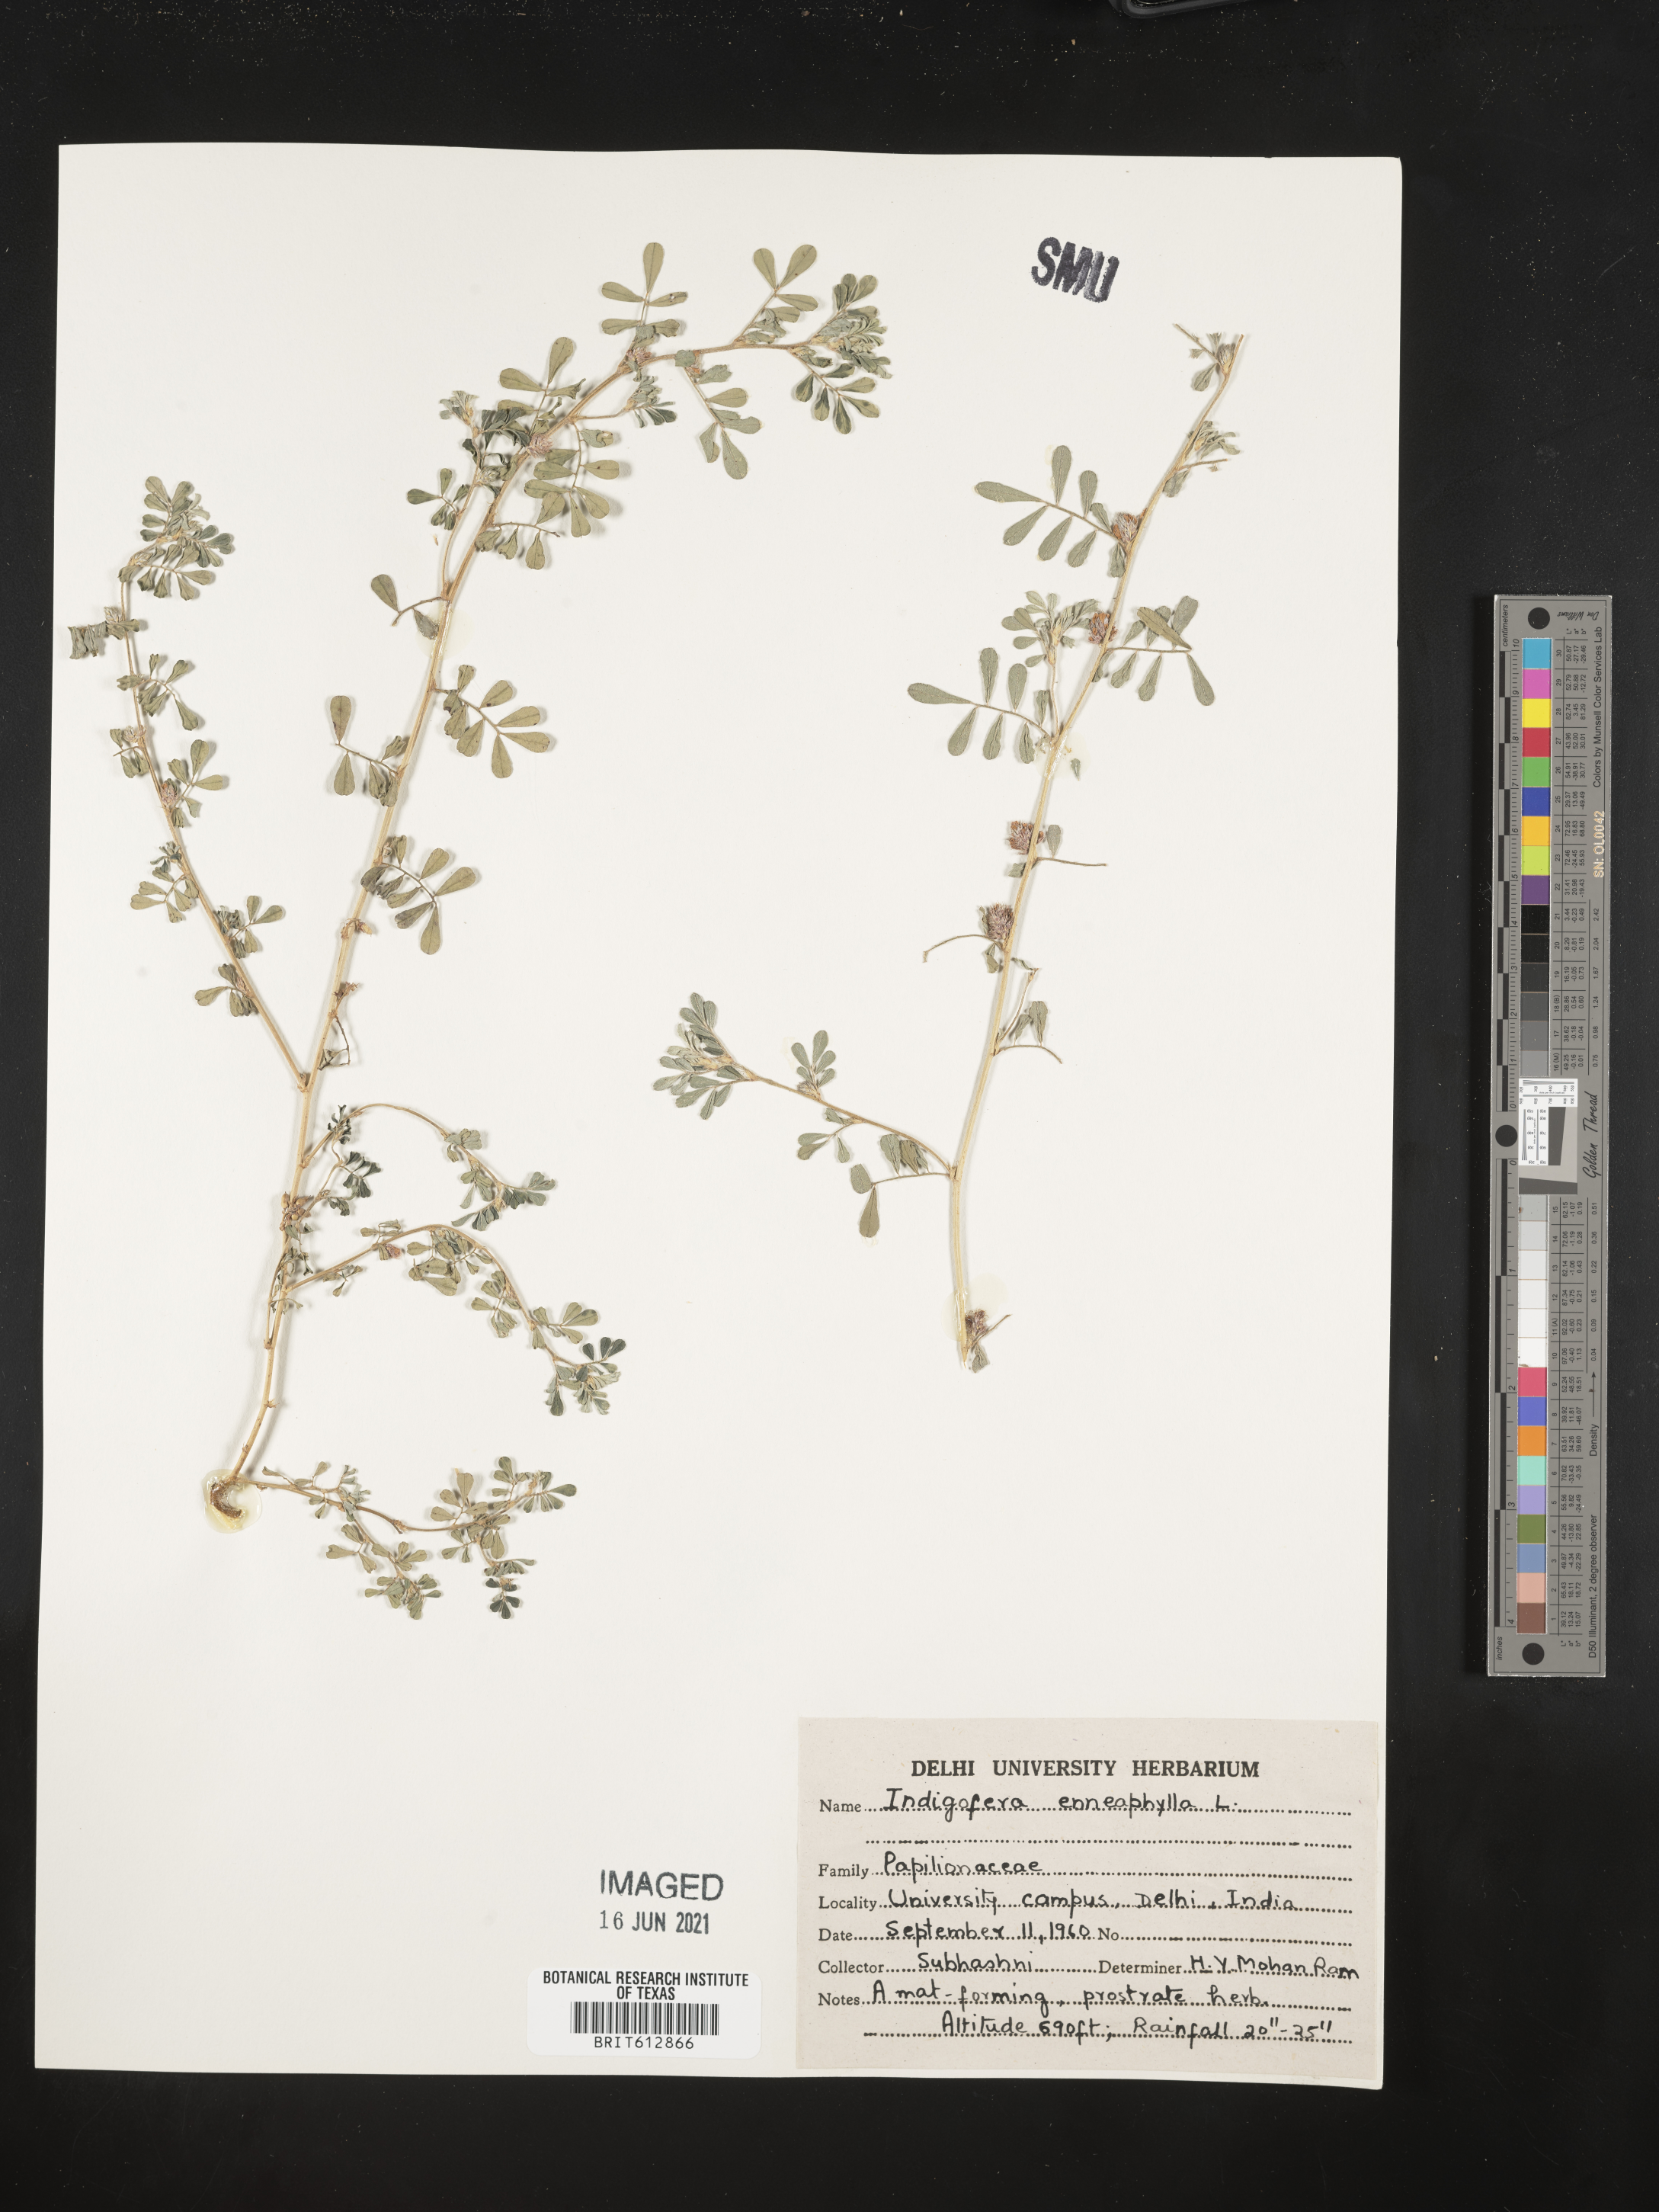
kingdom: Plantae
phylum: Tracheophyta
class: Magnoliopsida
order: Fabales
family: Fabaceae
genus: Indigofera
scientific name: Indigofera alternans
